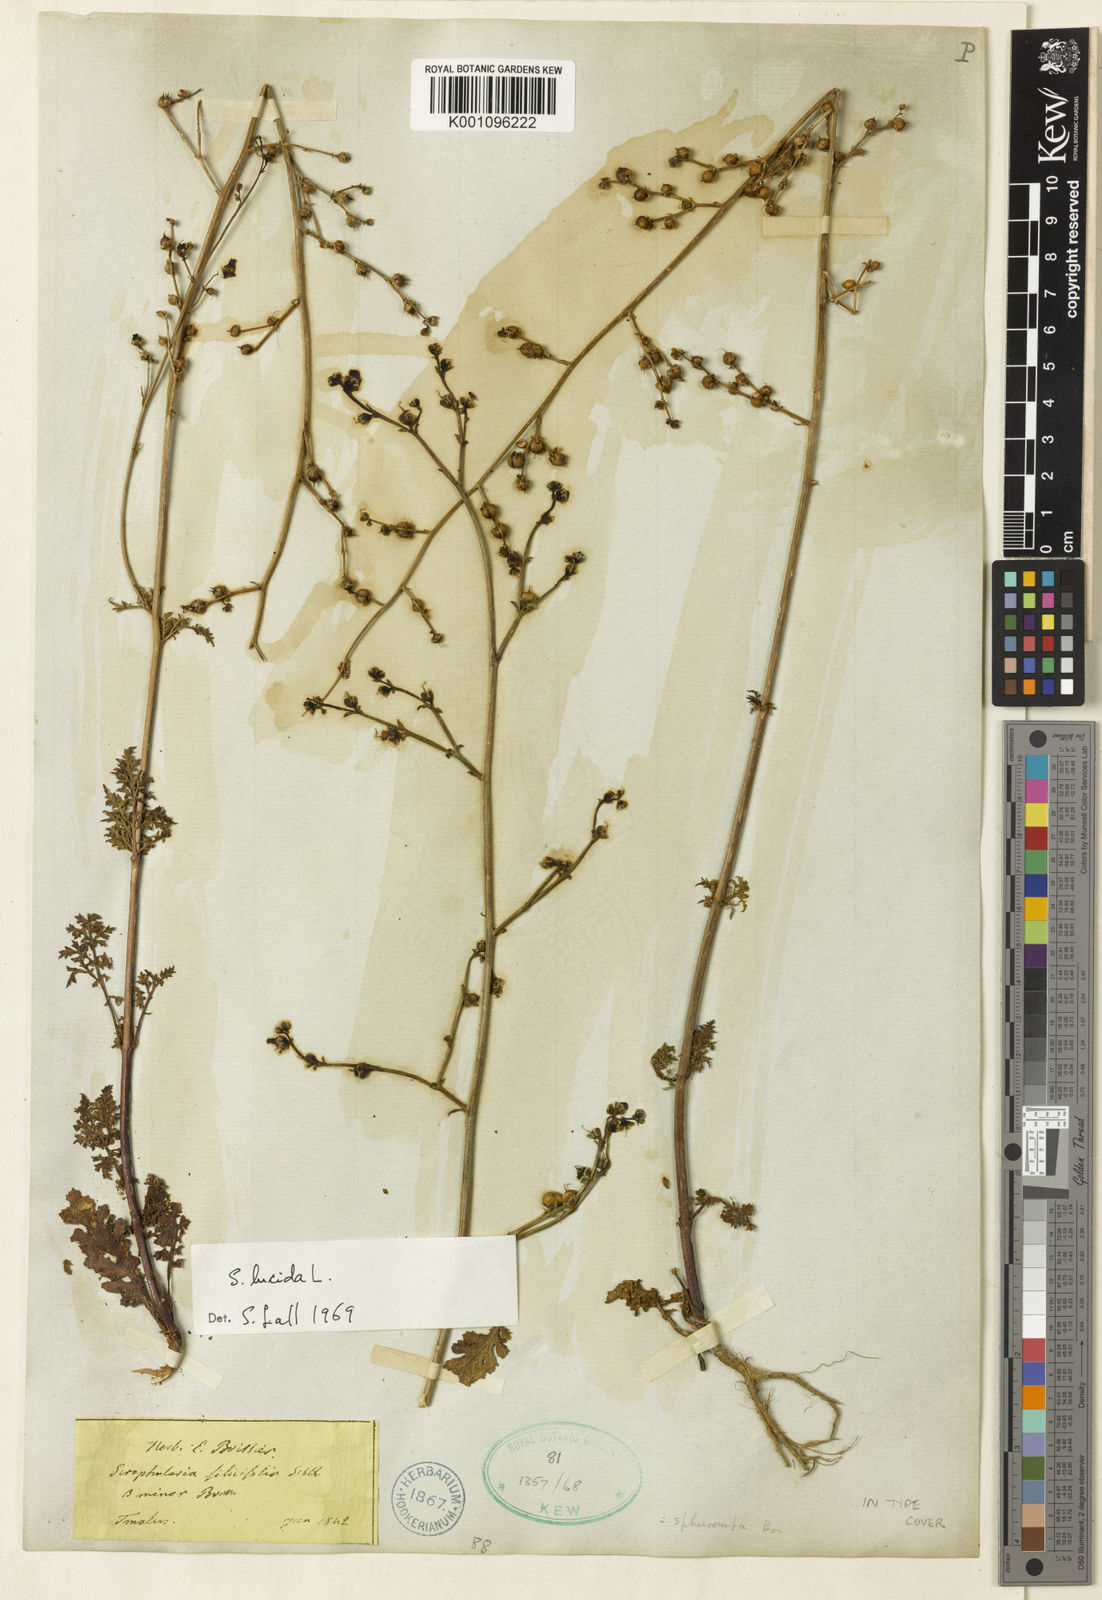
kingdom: Plantae
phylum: Tracheophyta
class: Magnoliopsida
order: Lamiales
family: Scrophulariaceae
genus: Scrophularia
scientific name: Scrophularia lucida
